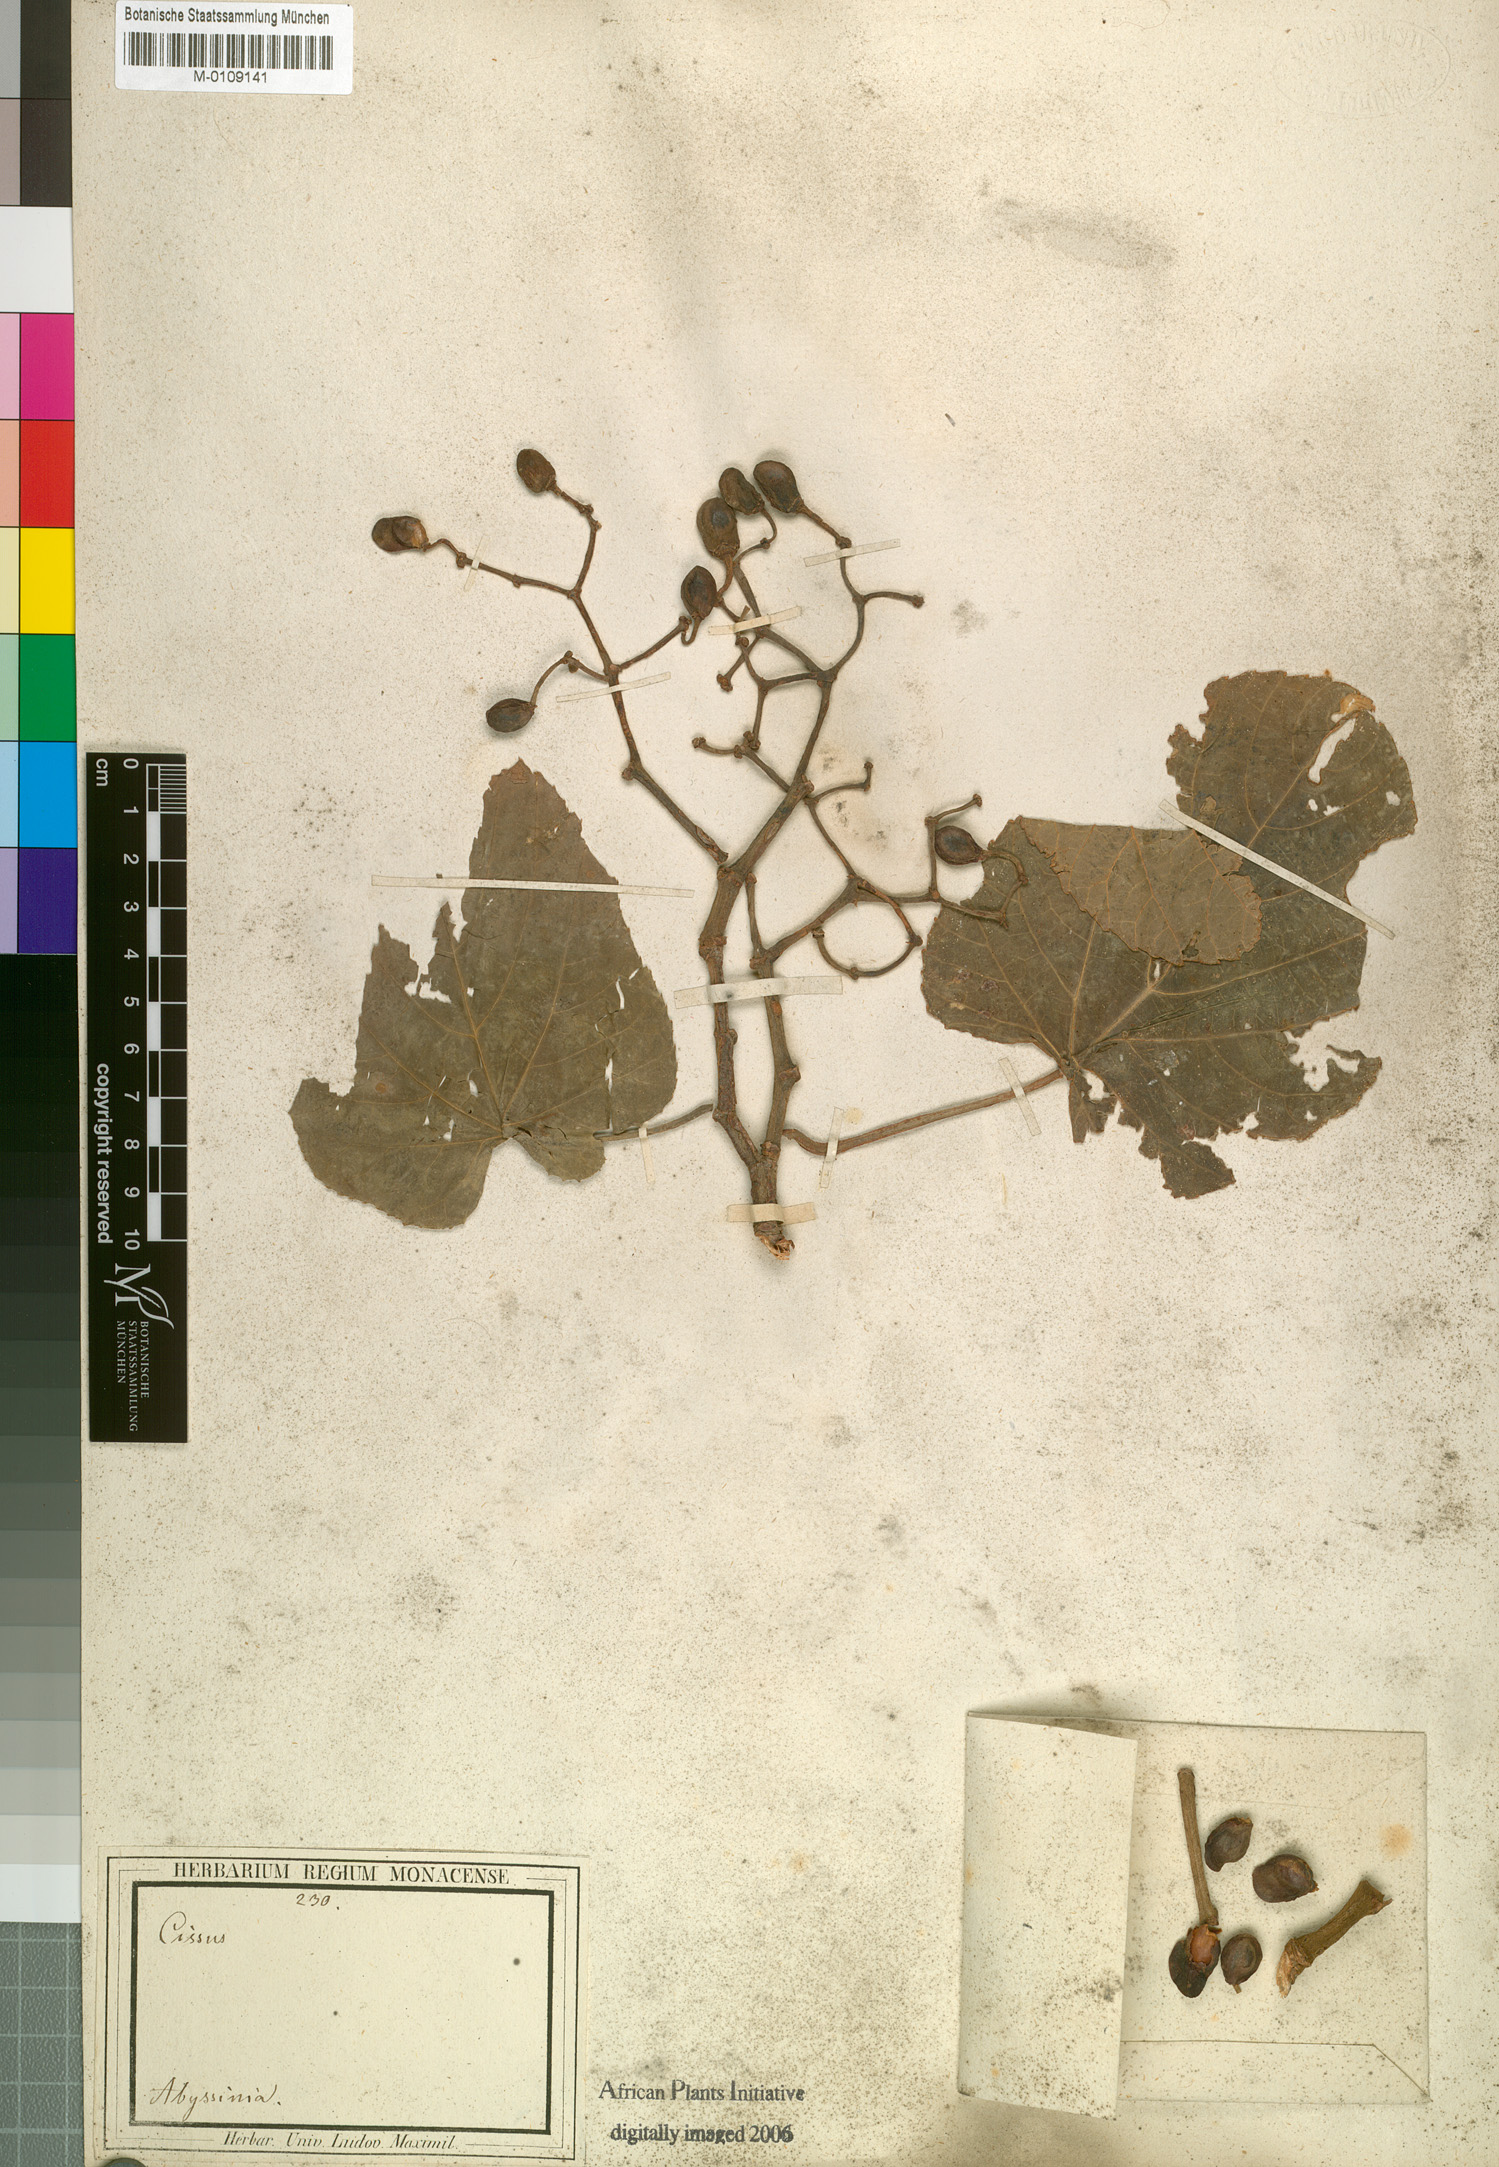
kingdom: Plantae
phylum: Tracheophyta
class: Magnoliopsida
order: Vitales
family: Vitaceae
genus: Cissus
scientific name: Cissus petiolata
